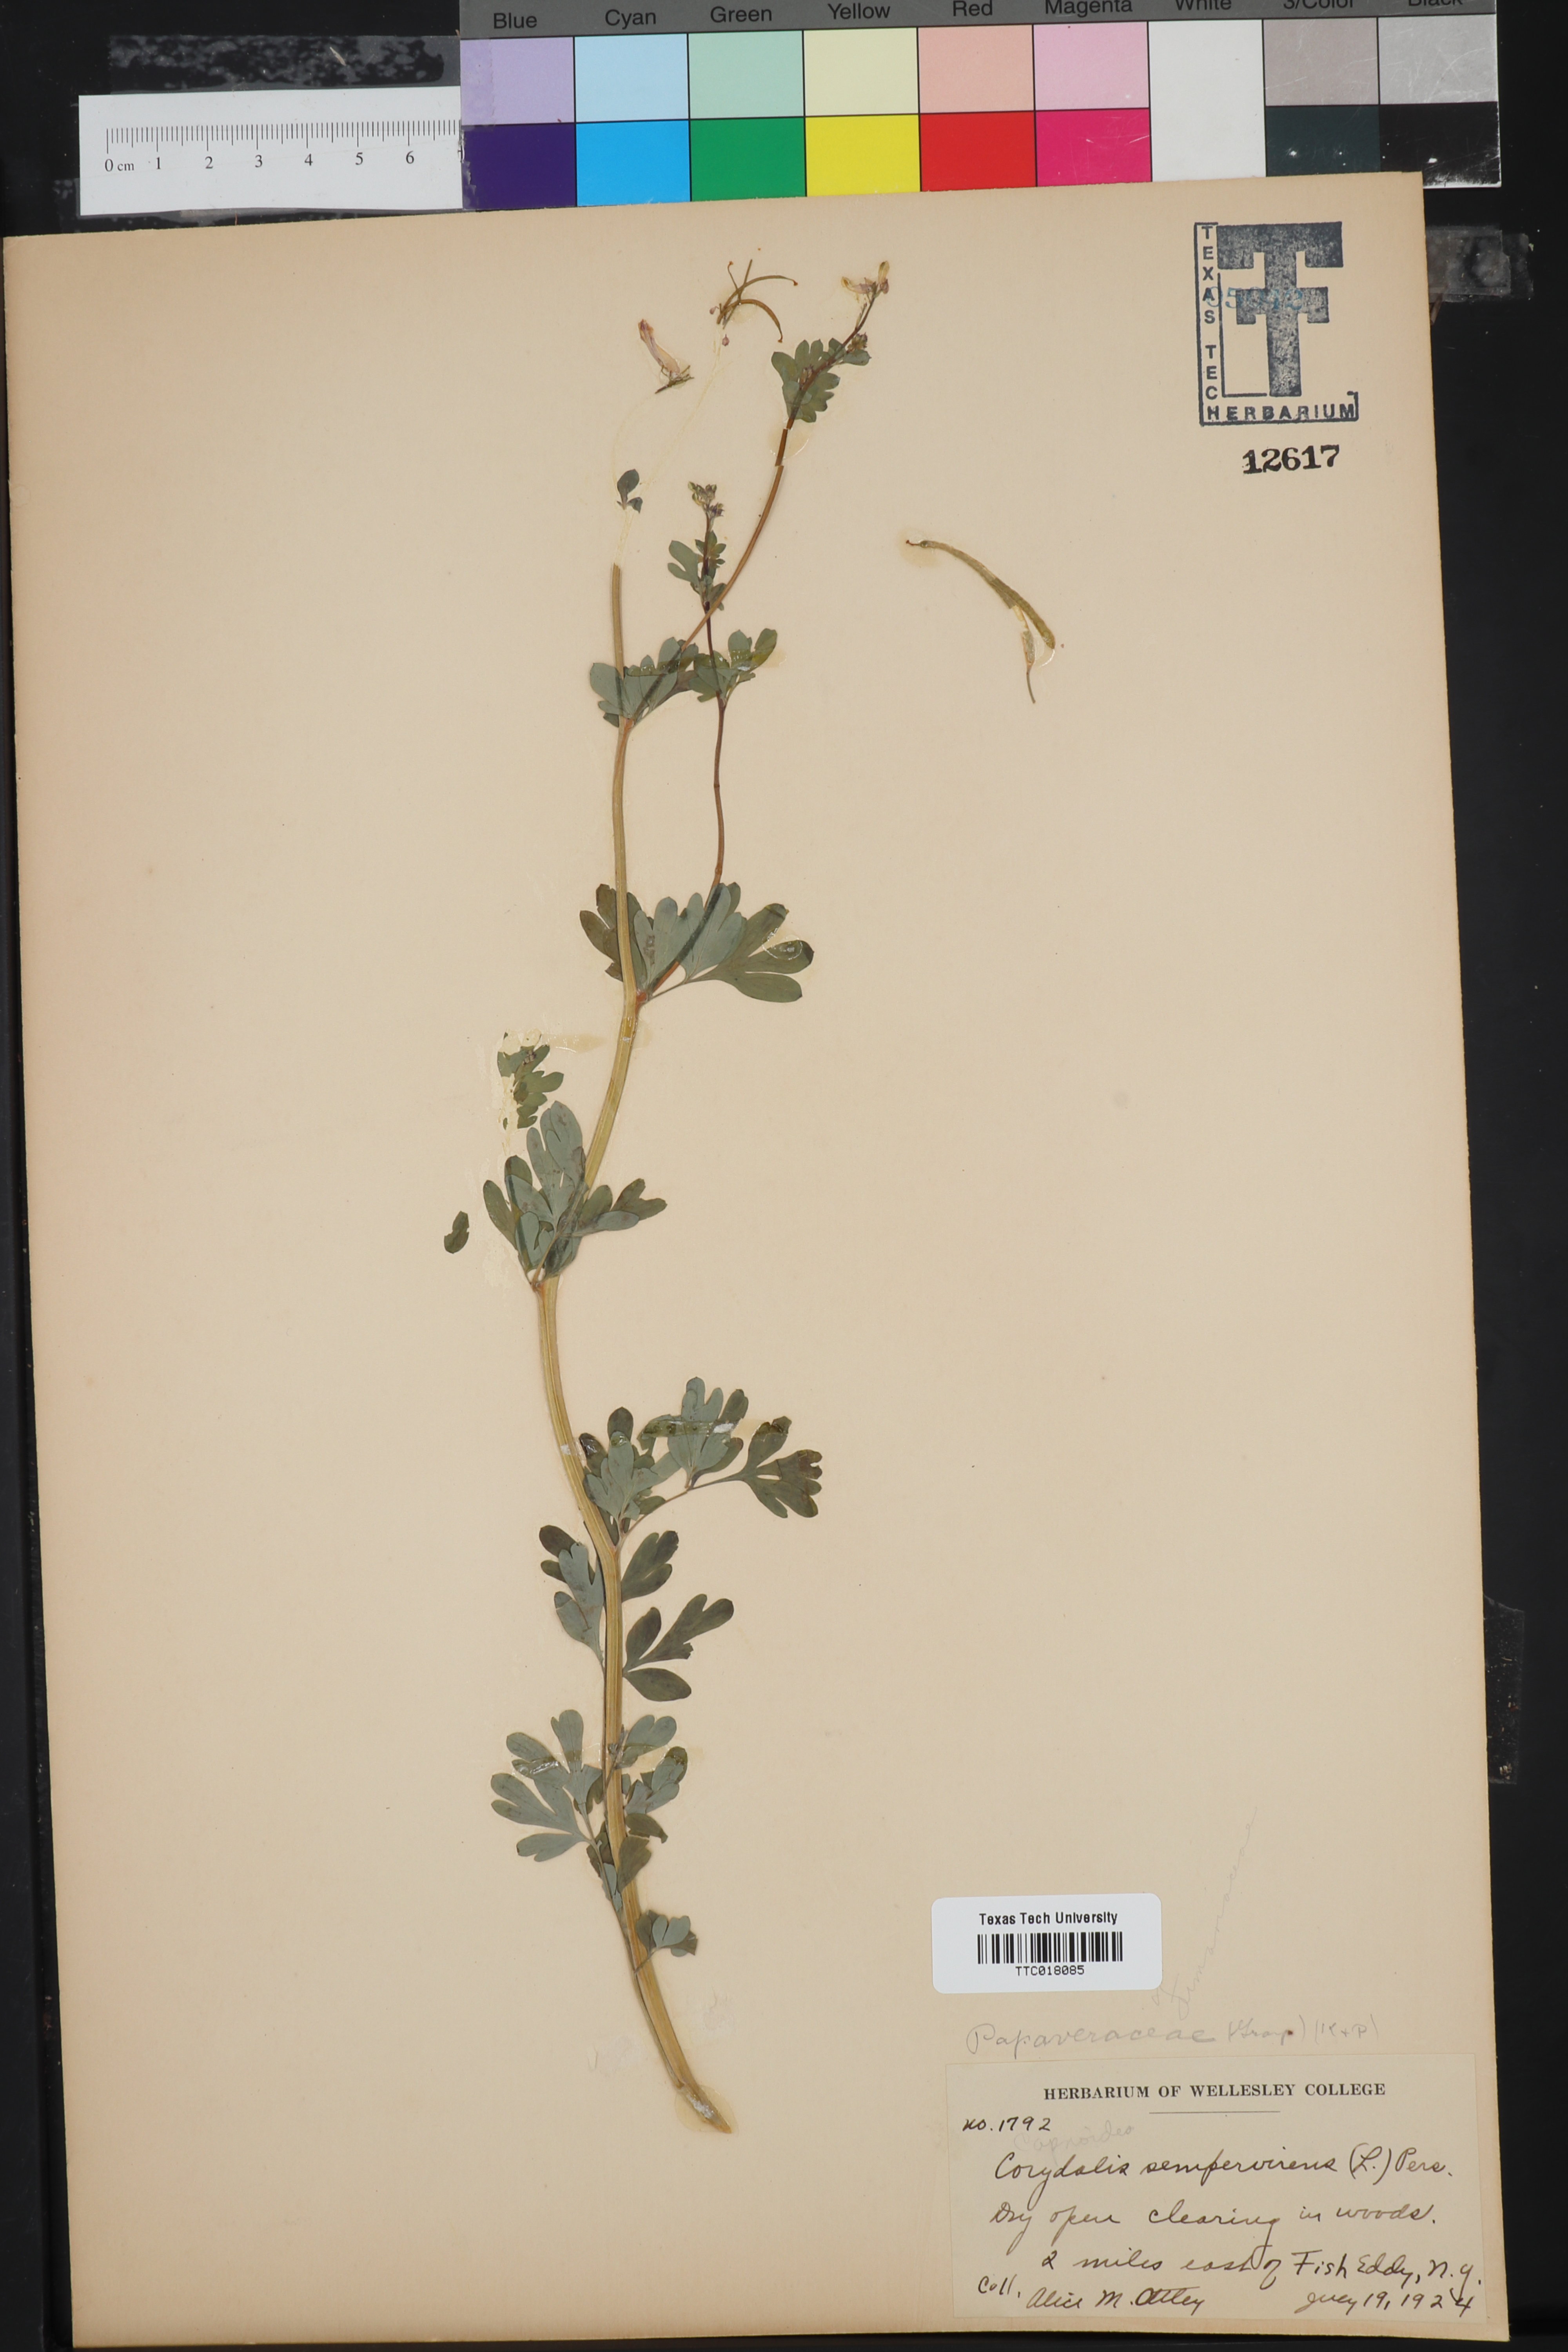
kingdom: Plantae
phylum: Tracheophyta
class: Magnoliopsida
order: Ranunculales
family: Papaveraceae
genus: Capnoides
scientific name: Capnoides sempervirens
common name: Rock harlequin
